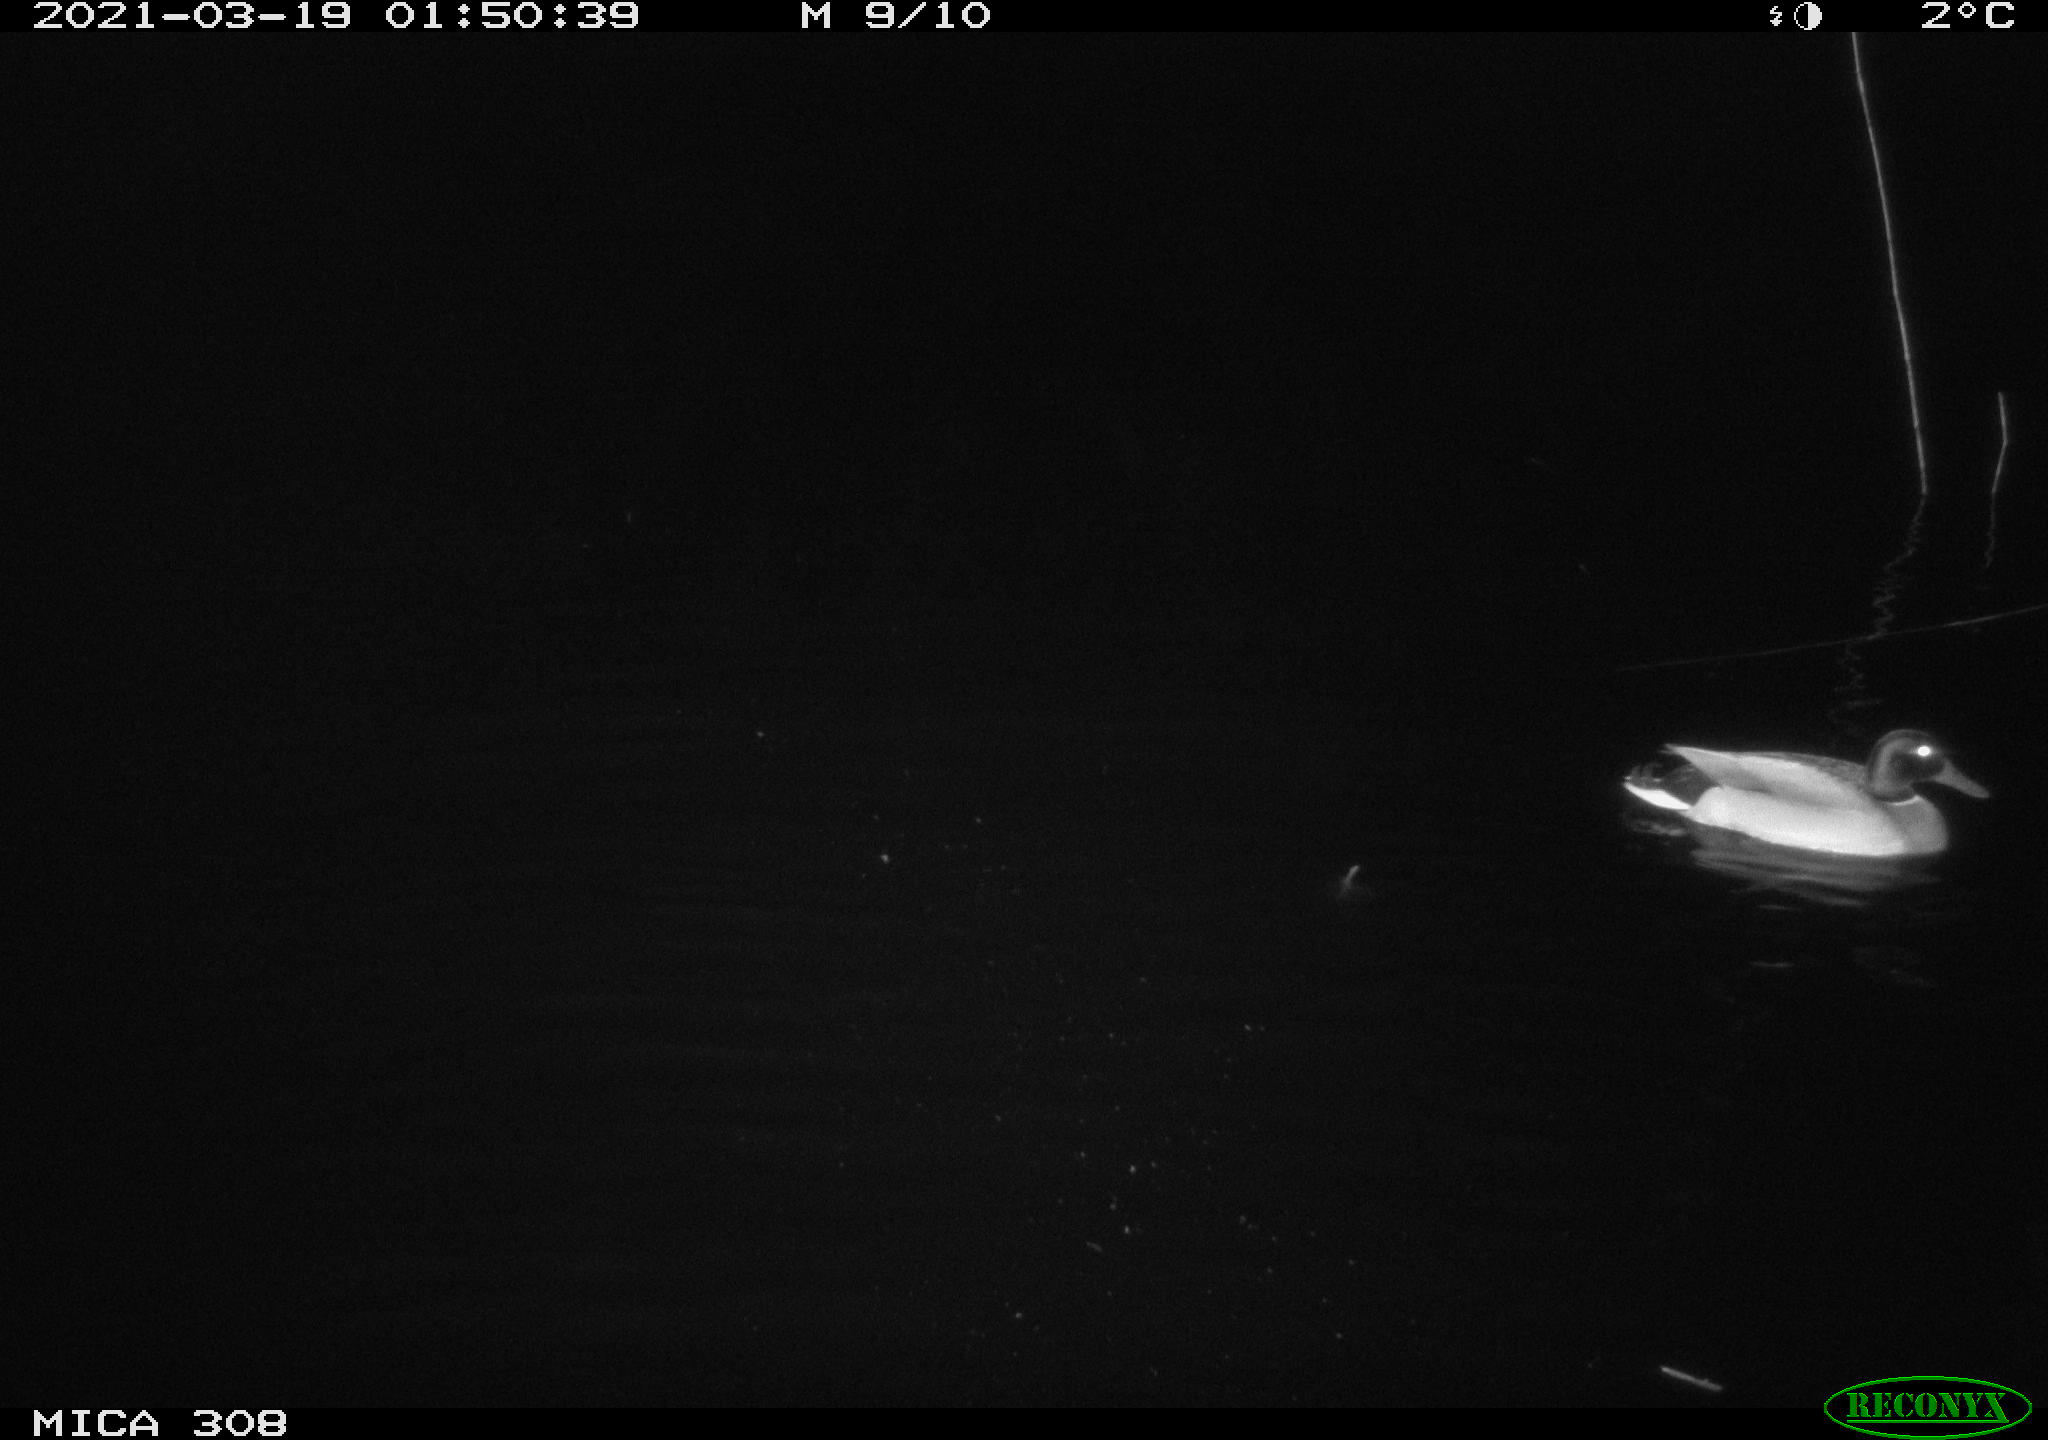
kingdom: Animalia
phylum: Chordata
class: Aves
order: Anseriformes
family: Anatidae
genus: Anas
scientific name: Anas platyrhynchos
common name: Mallard
